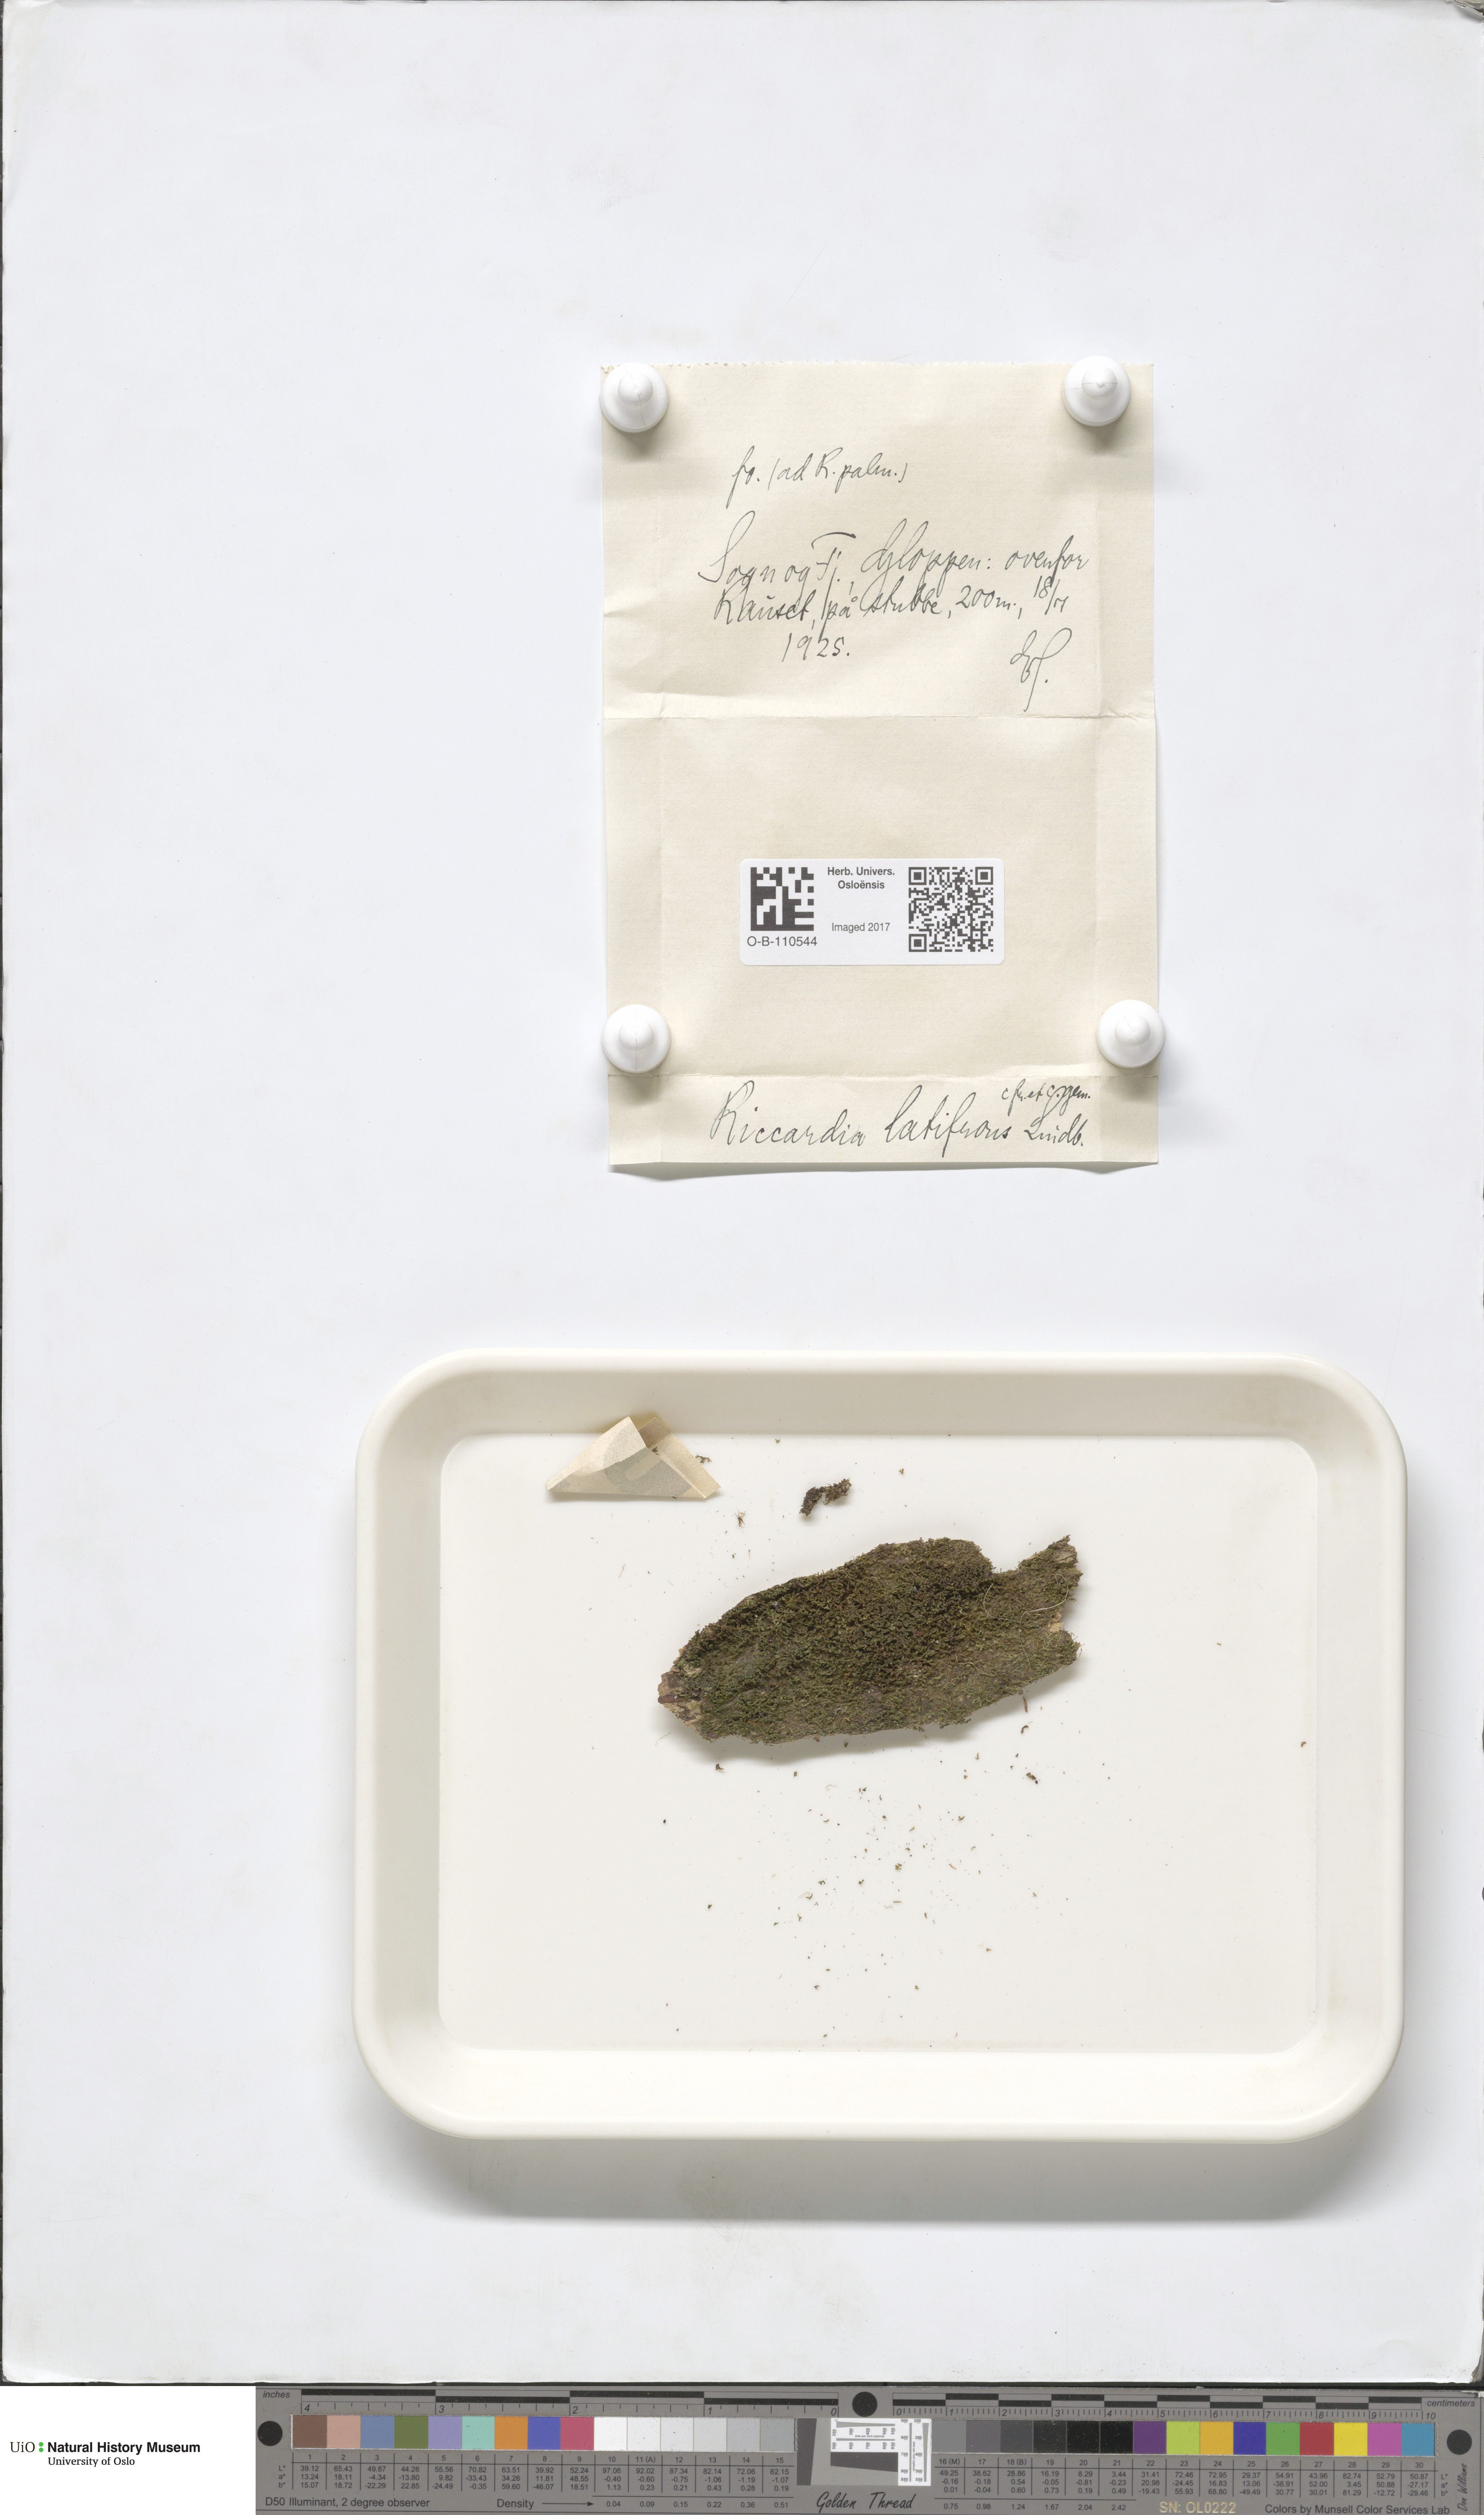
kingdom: Plantae
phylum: Marchantiophyta
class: Jungermanniopsida
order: Metzgeriales
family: Aneuraceae
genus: Riccardia
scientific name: Riccardia latifrons
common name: Bog germanderwort
